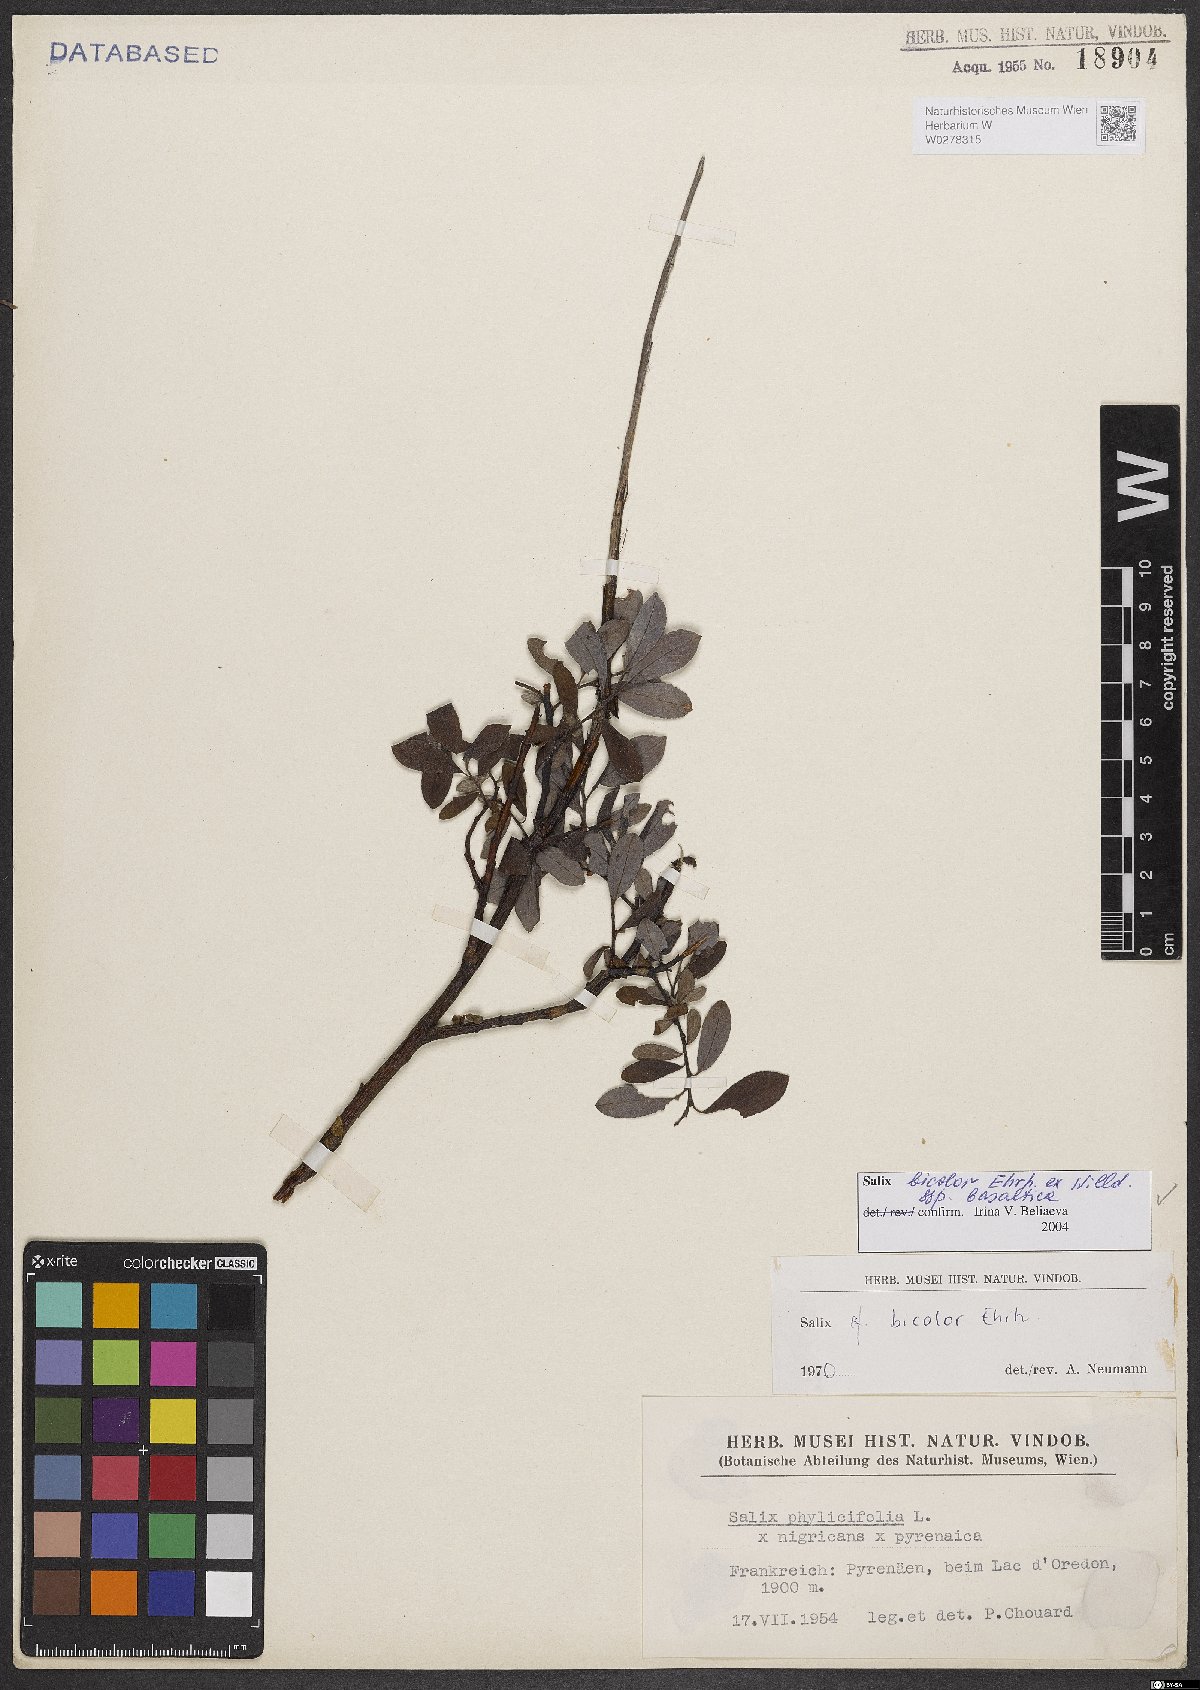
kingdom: Plantae
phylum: Tracheophyta
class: Magnoliopsida
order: Malpighiales
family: Salicaceae
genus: Salix
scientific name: Salix basaltica
